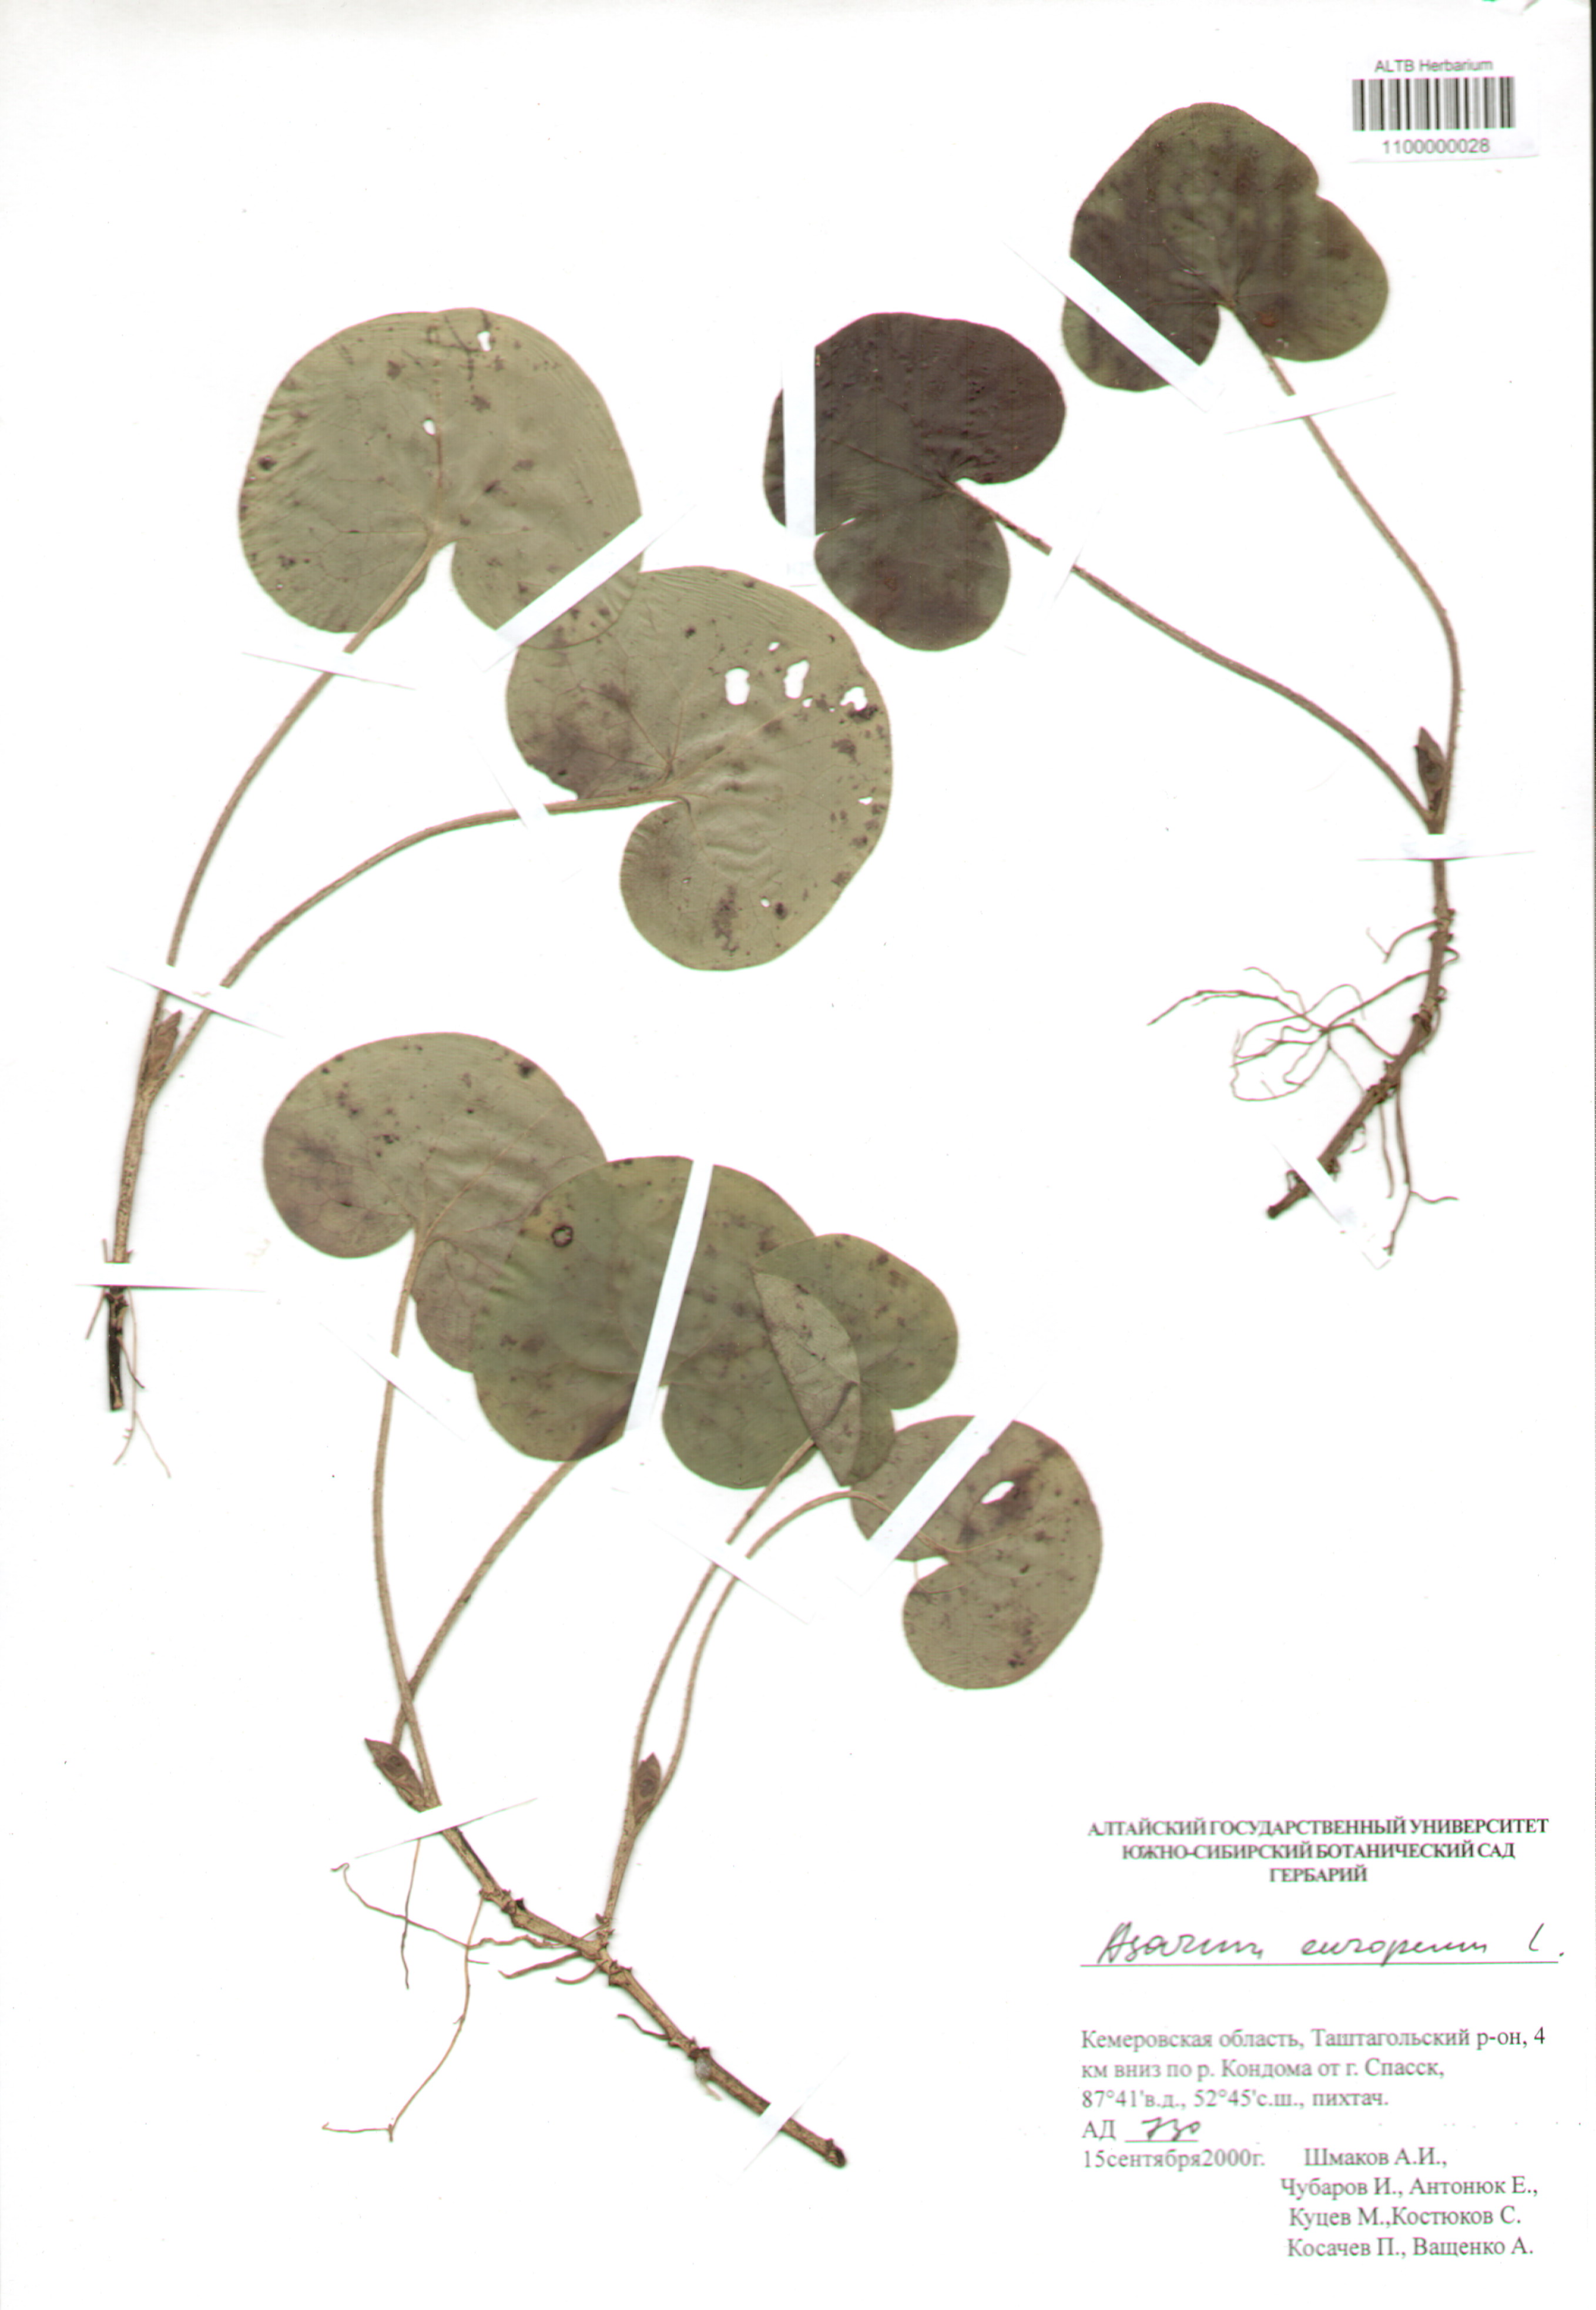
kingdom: Plantae
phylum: Tracheophyta
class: Magnoliopsida
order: Piperales
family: Aristolochiaceae
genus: Asarum
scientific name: Asarum europaeum
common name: Asarabacca
